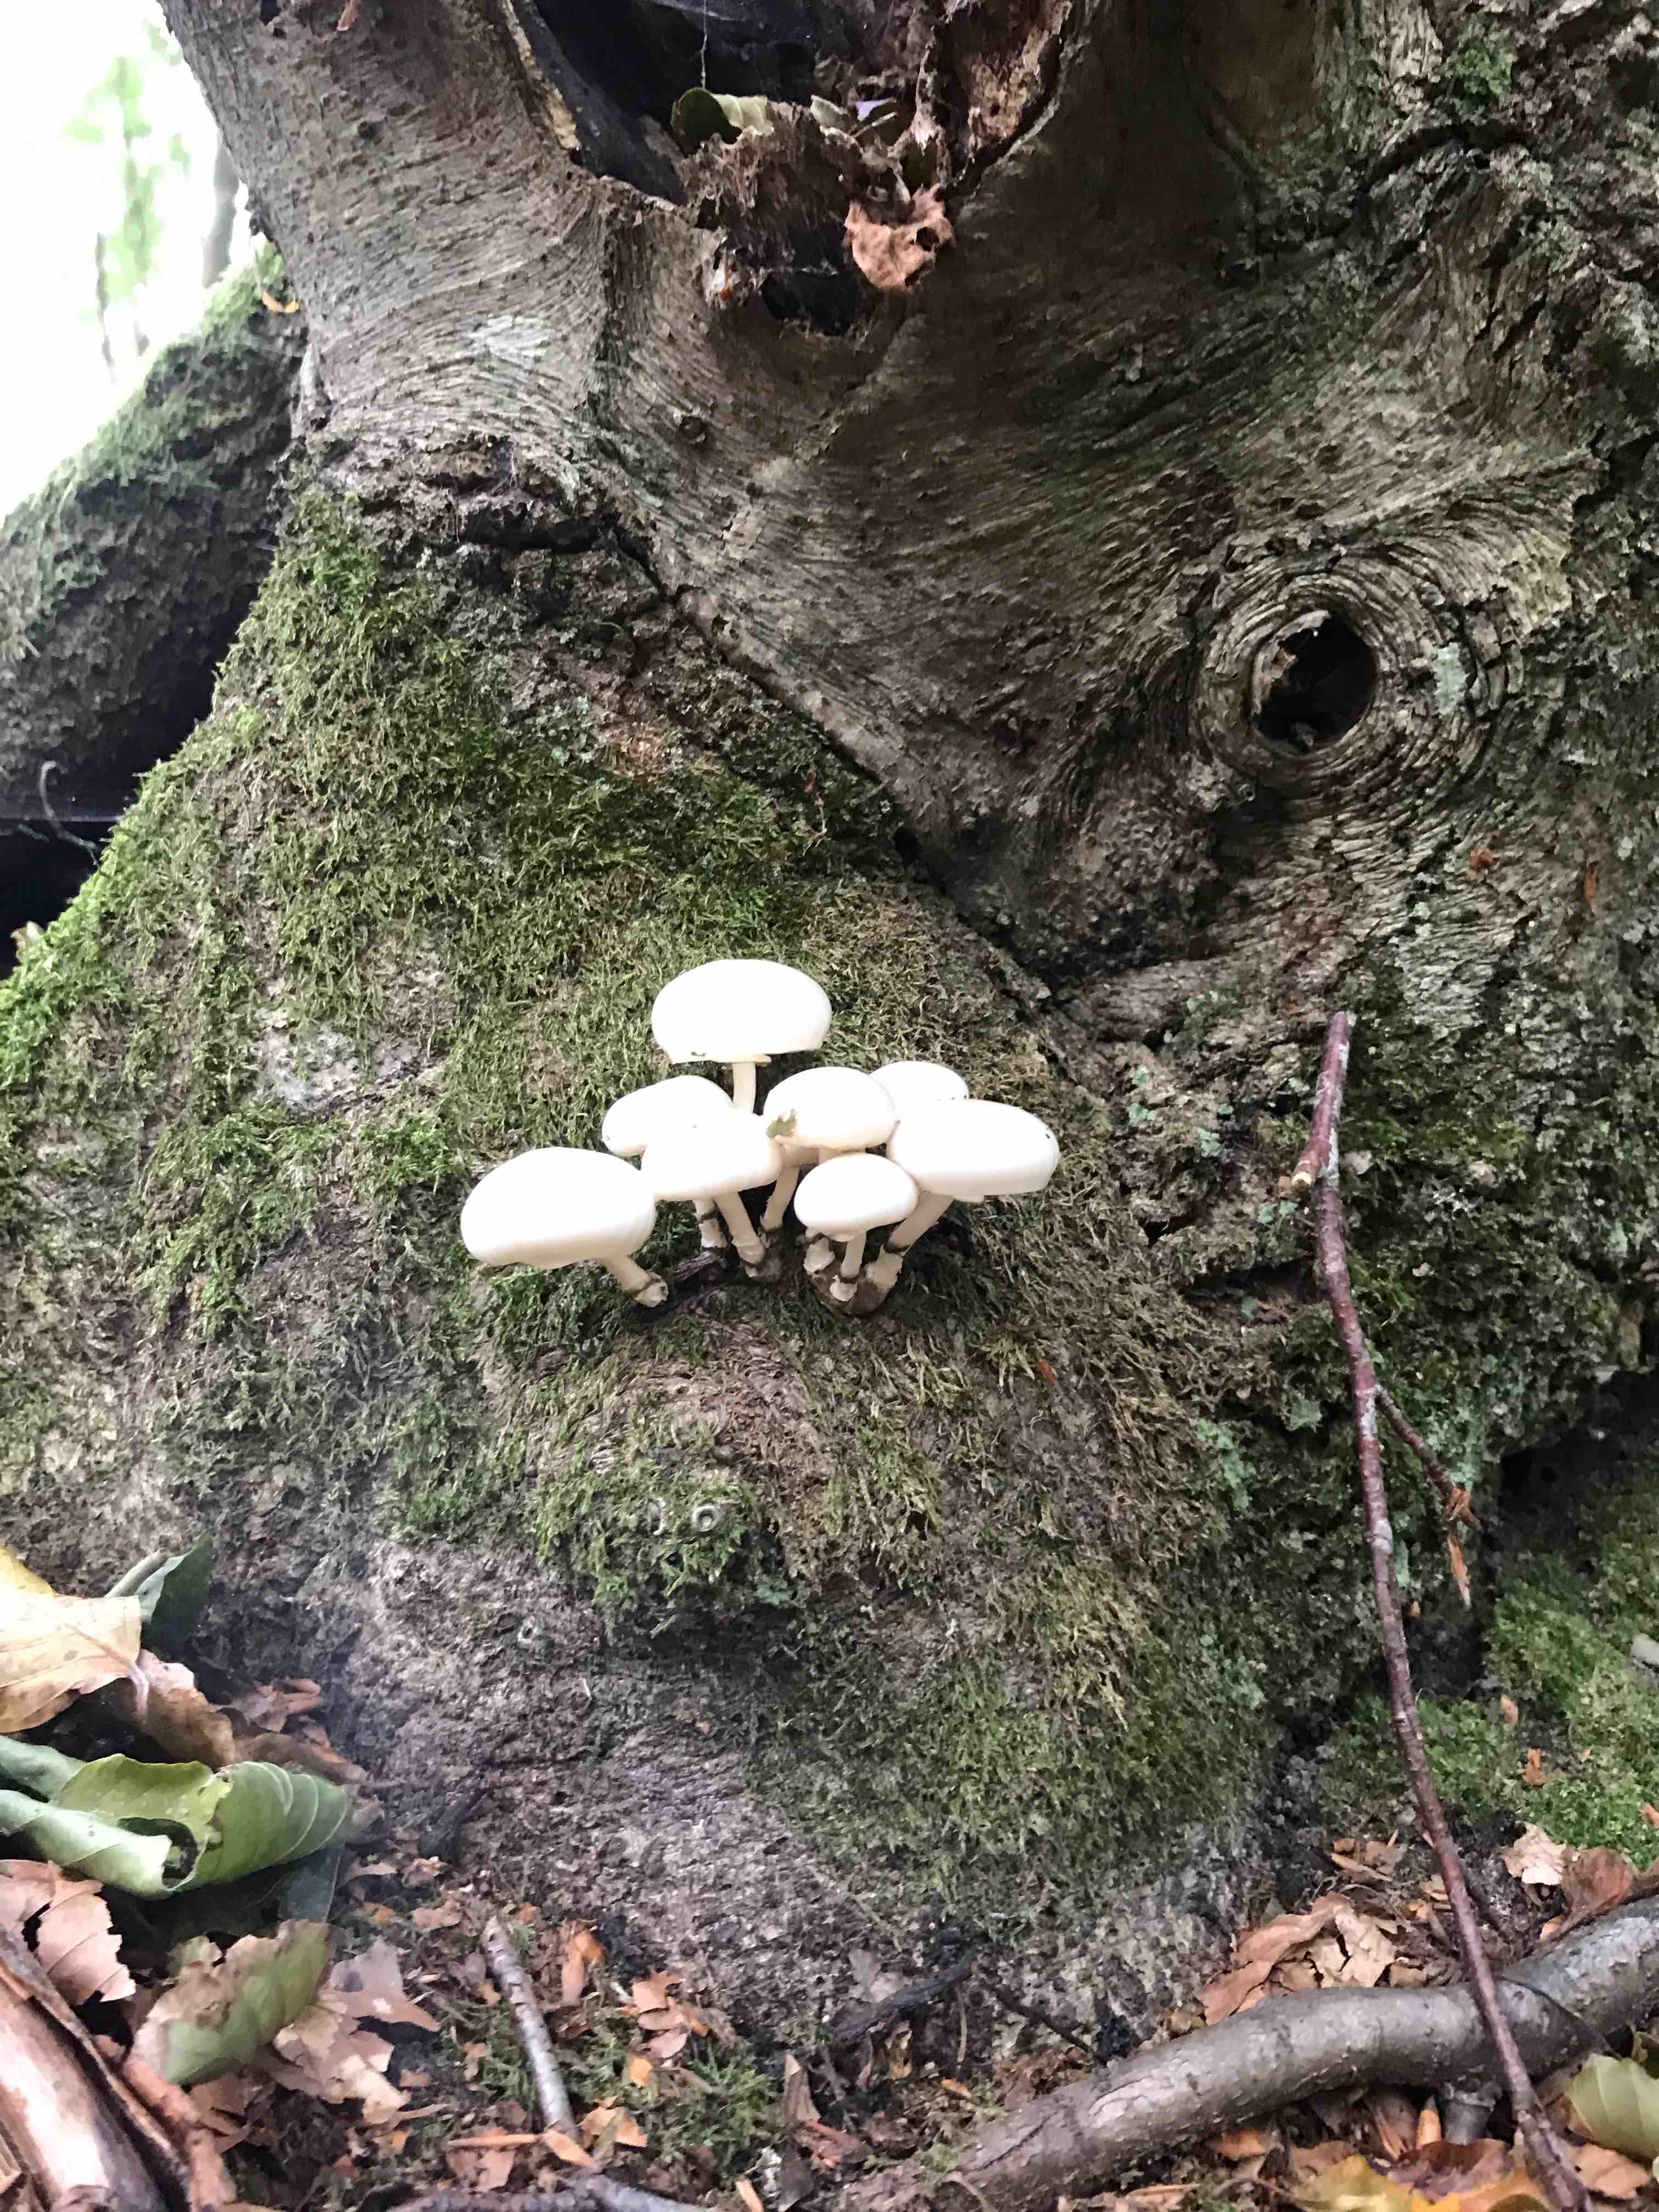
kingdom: Fungi
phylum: Basidiomycota
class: Agaricomycetes
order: Agaricales
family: Physalacriaceae
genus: Mucidula
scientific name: Mucidula mucida
